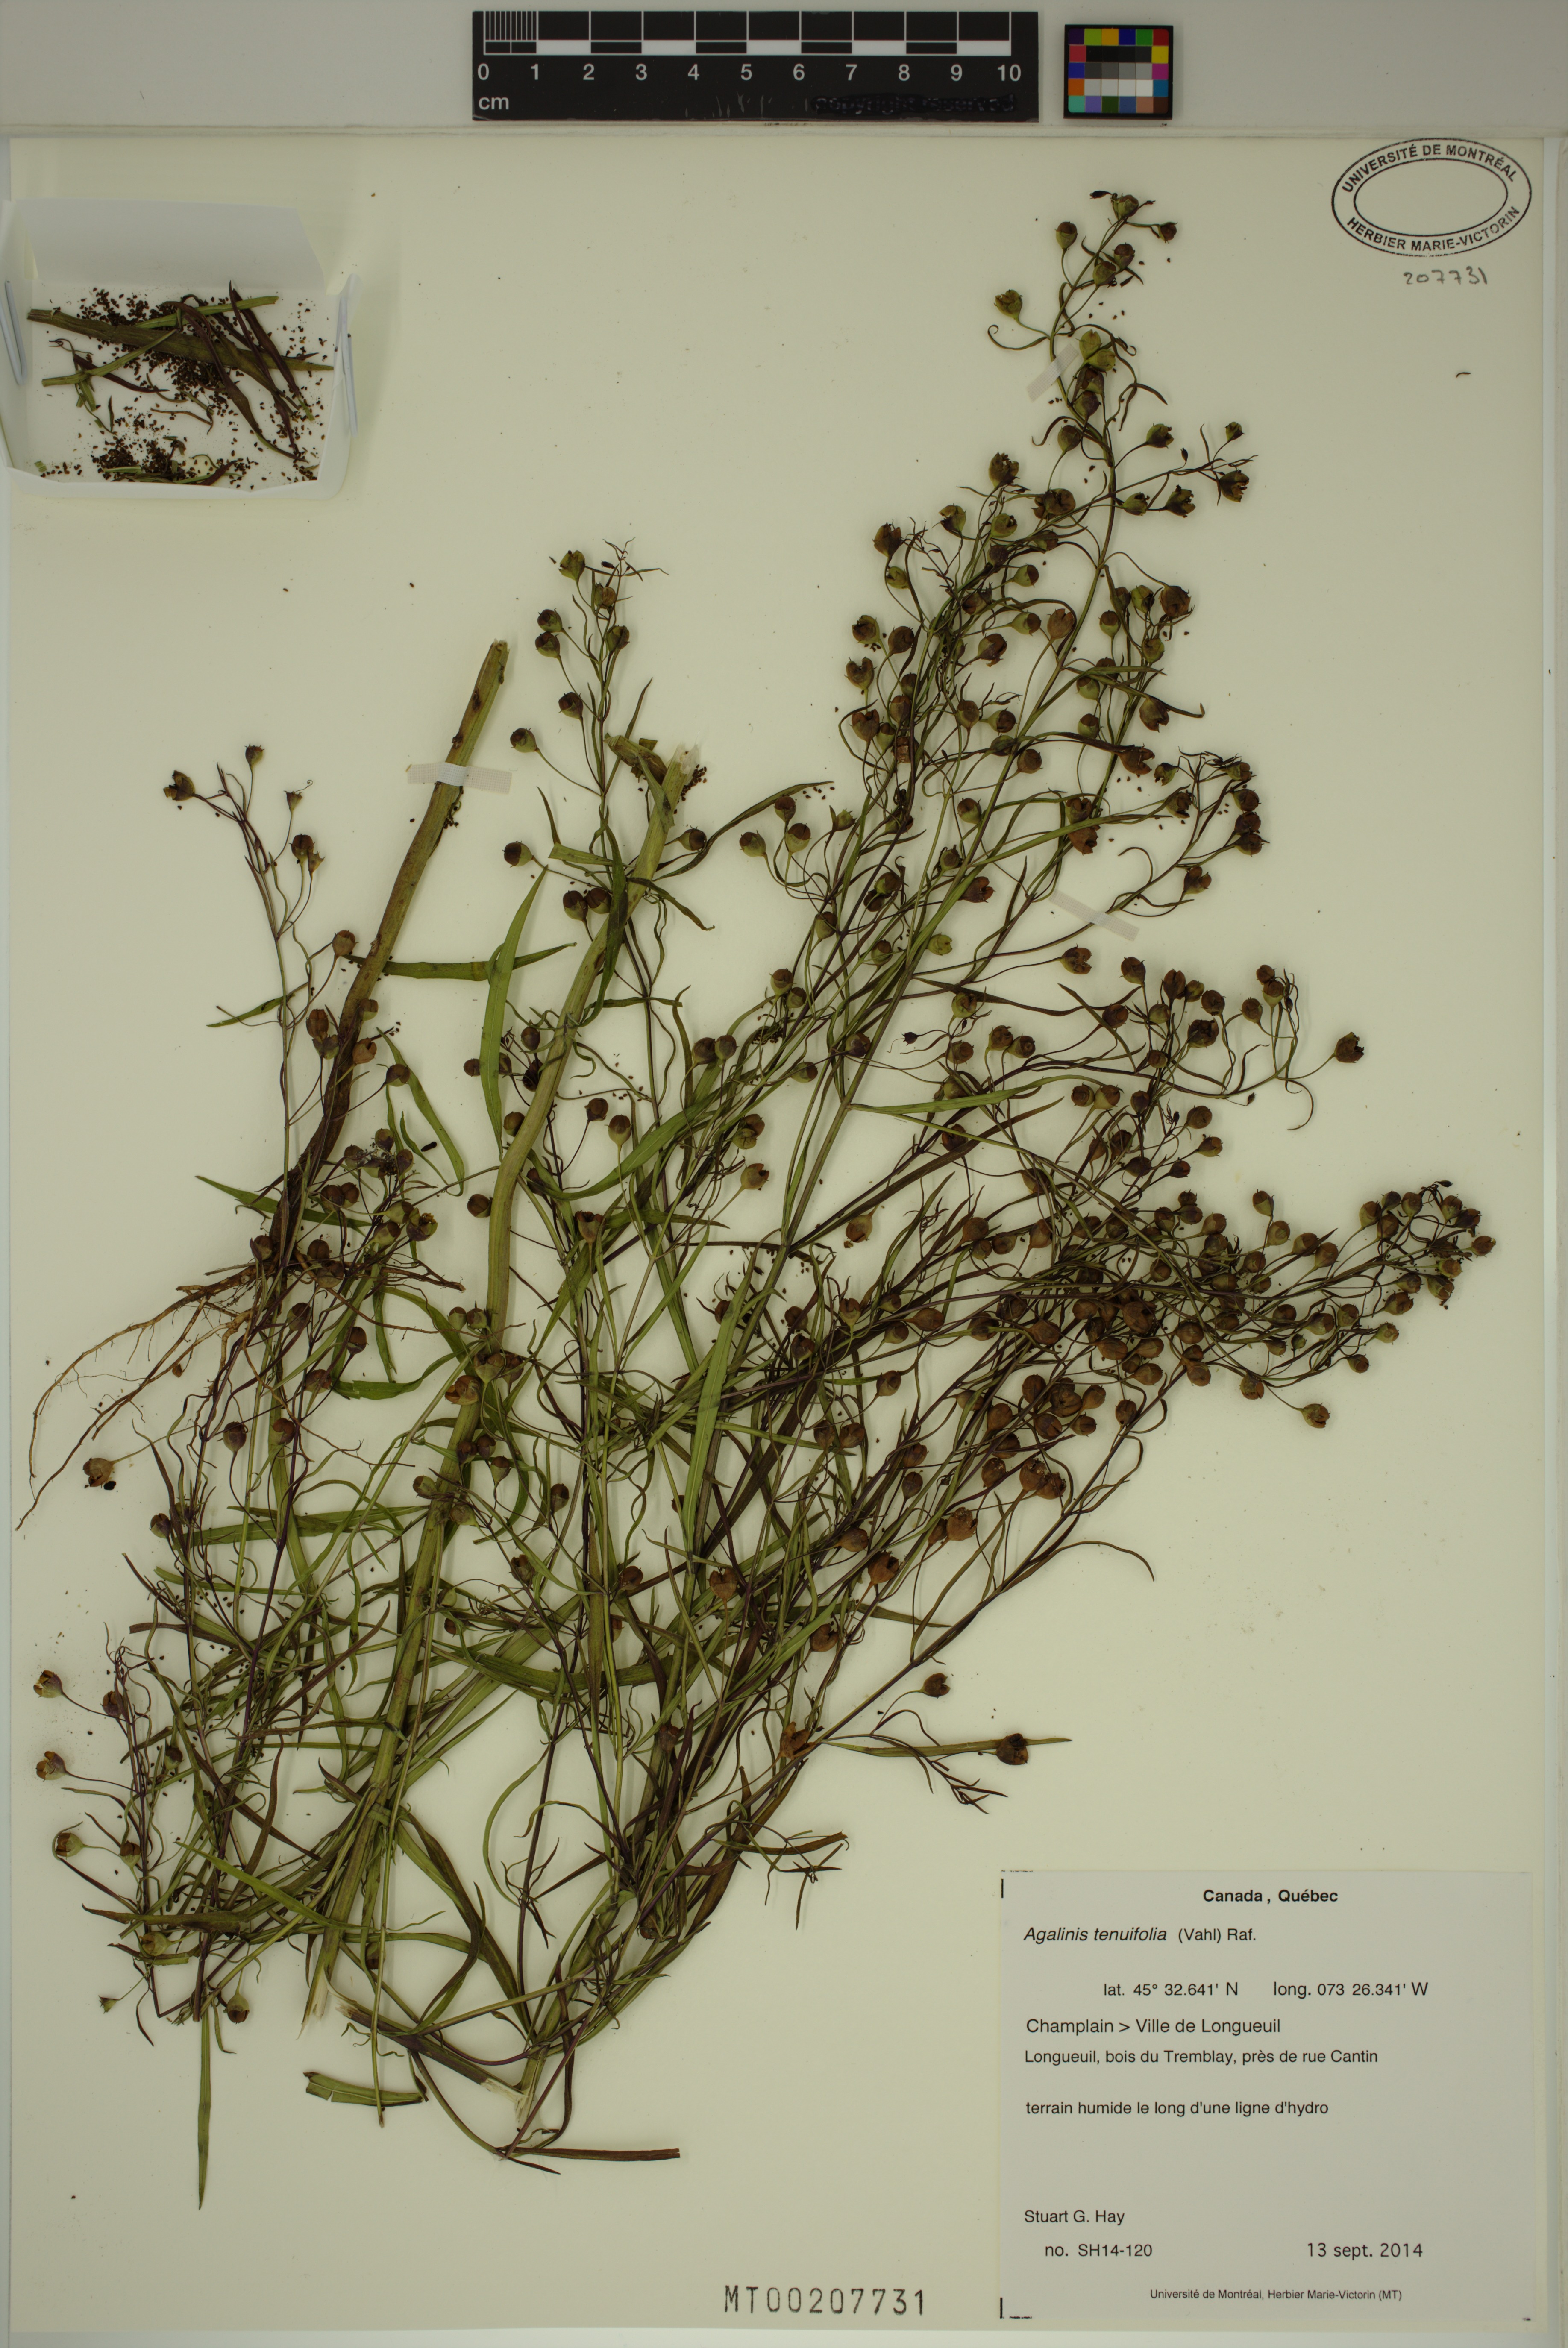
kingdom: Plantae
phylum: Tracheophyta
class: Magnoliopsida
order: Lamiales
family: Orobanchaceae
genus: Agalinis
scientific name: Agalinis tenuifolia
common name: Slender agalinis
